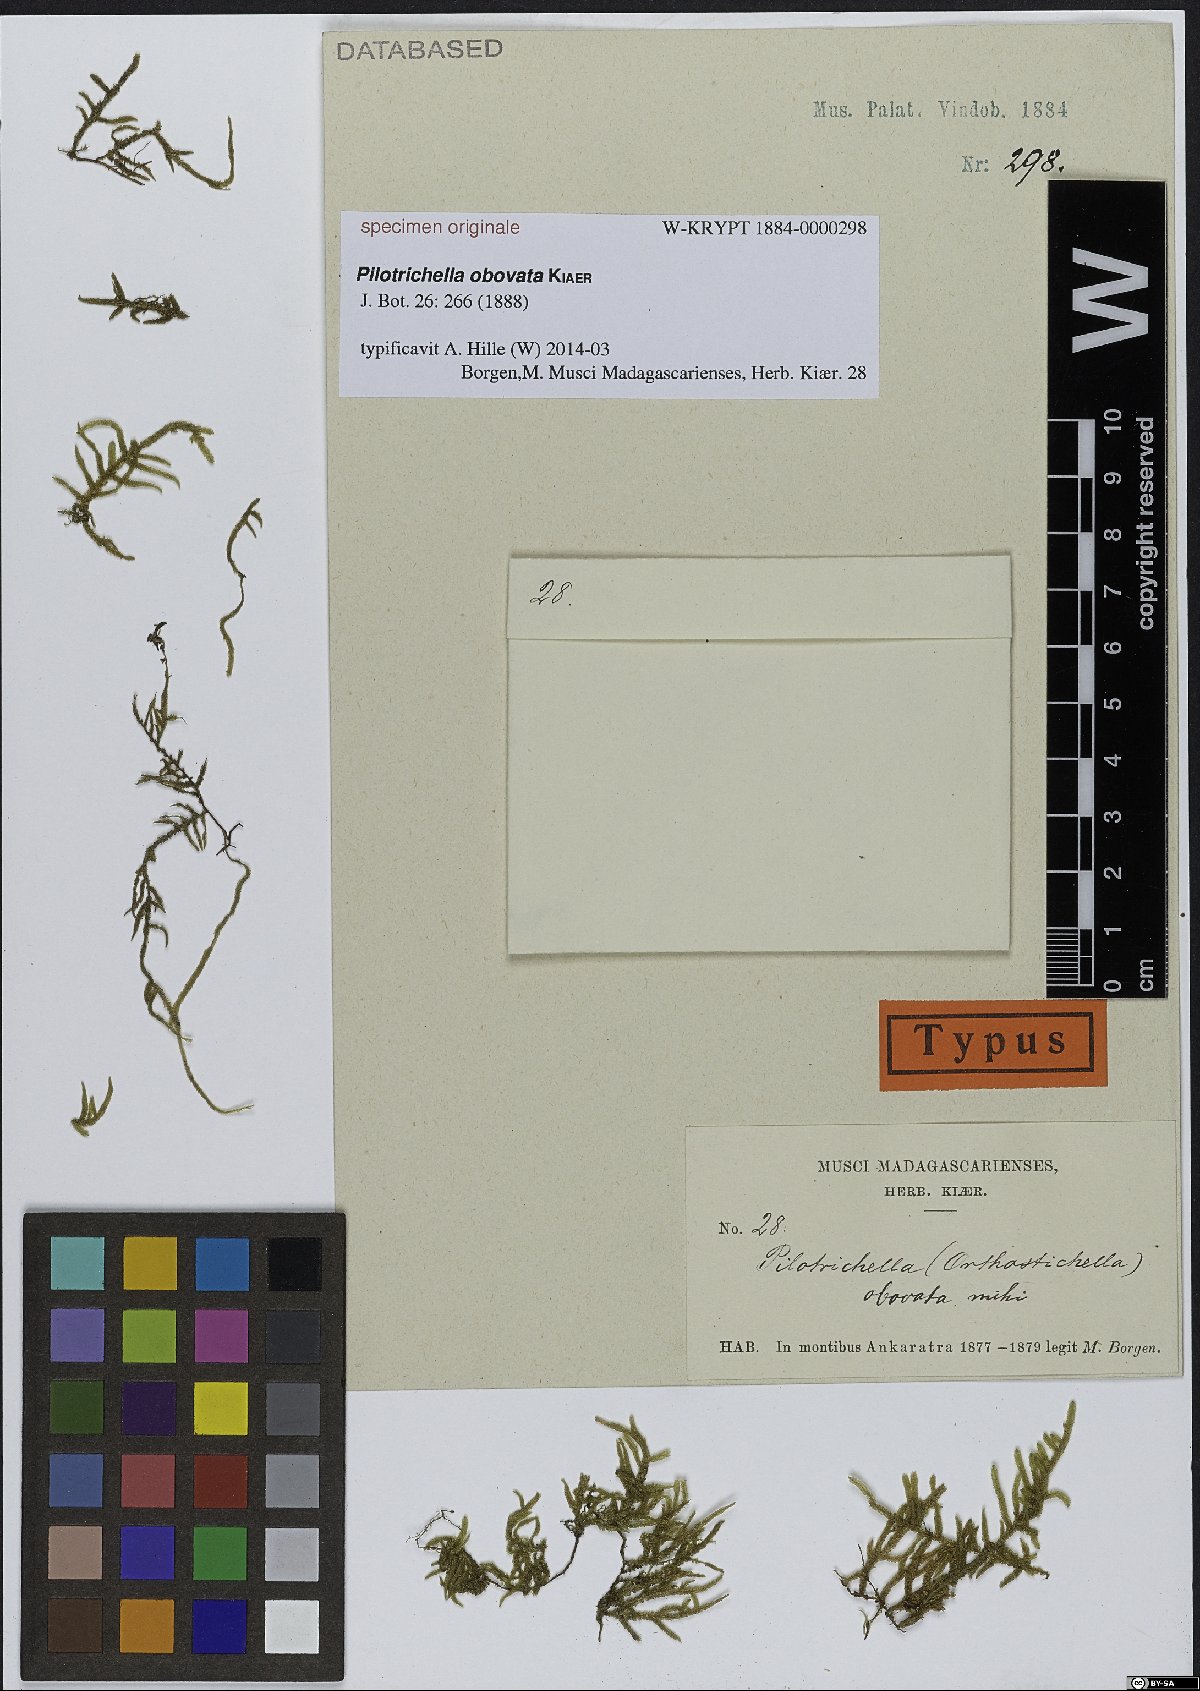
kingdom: Plantae
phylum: Bryophyta
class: Bryopsida
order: Hypnales
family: Lembophyllaceae
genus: Pilotrichella
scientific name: Pilotrichella mascarenica
